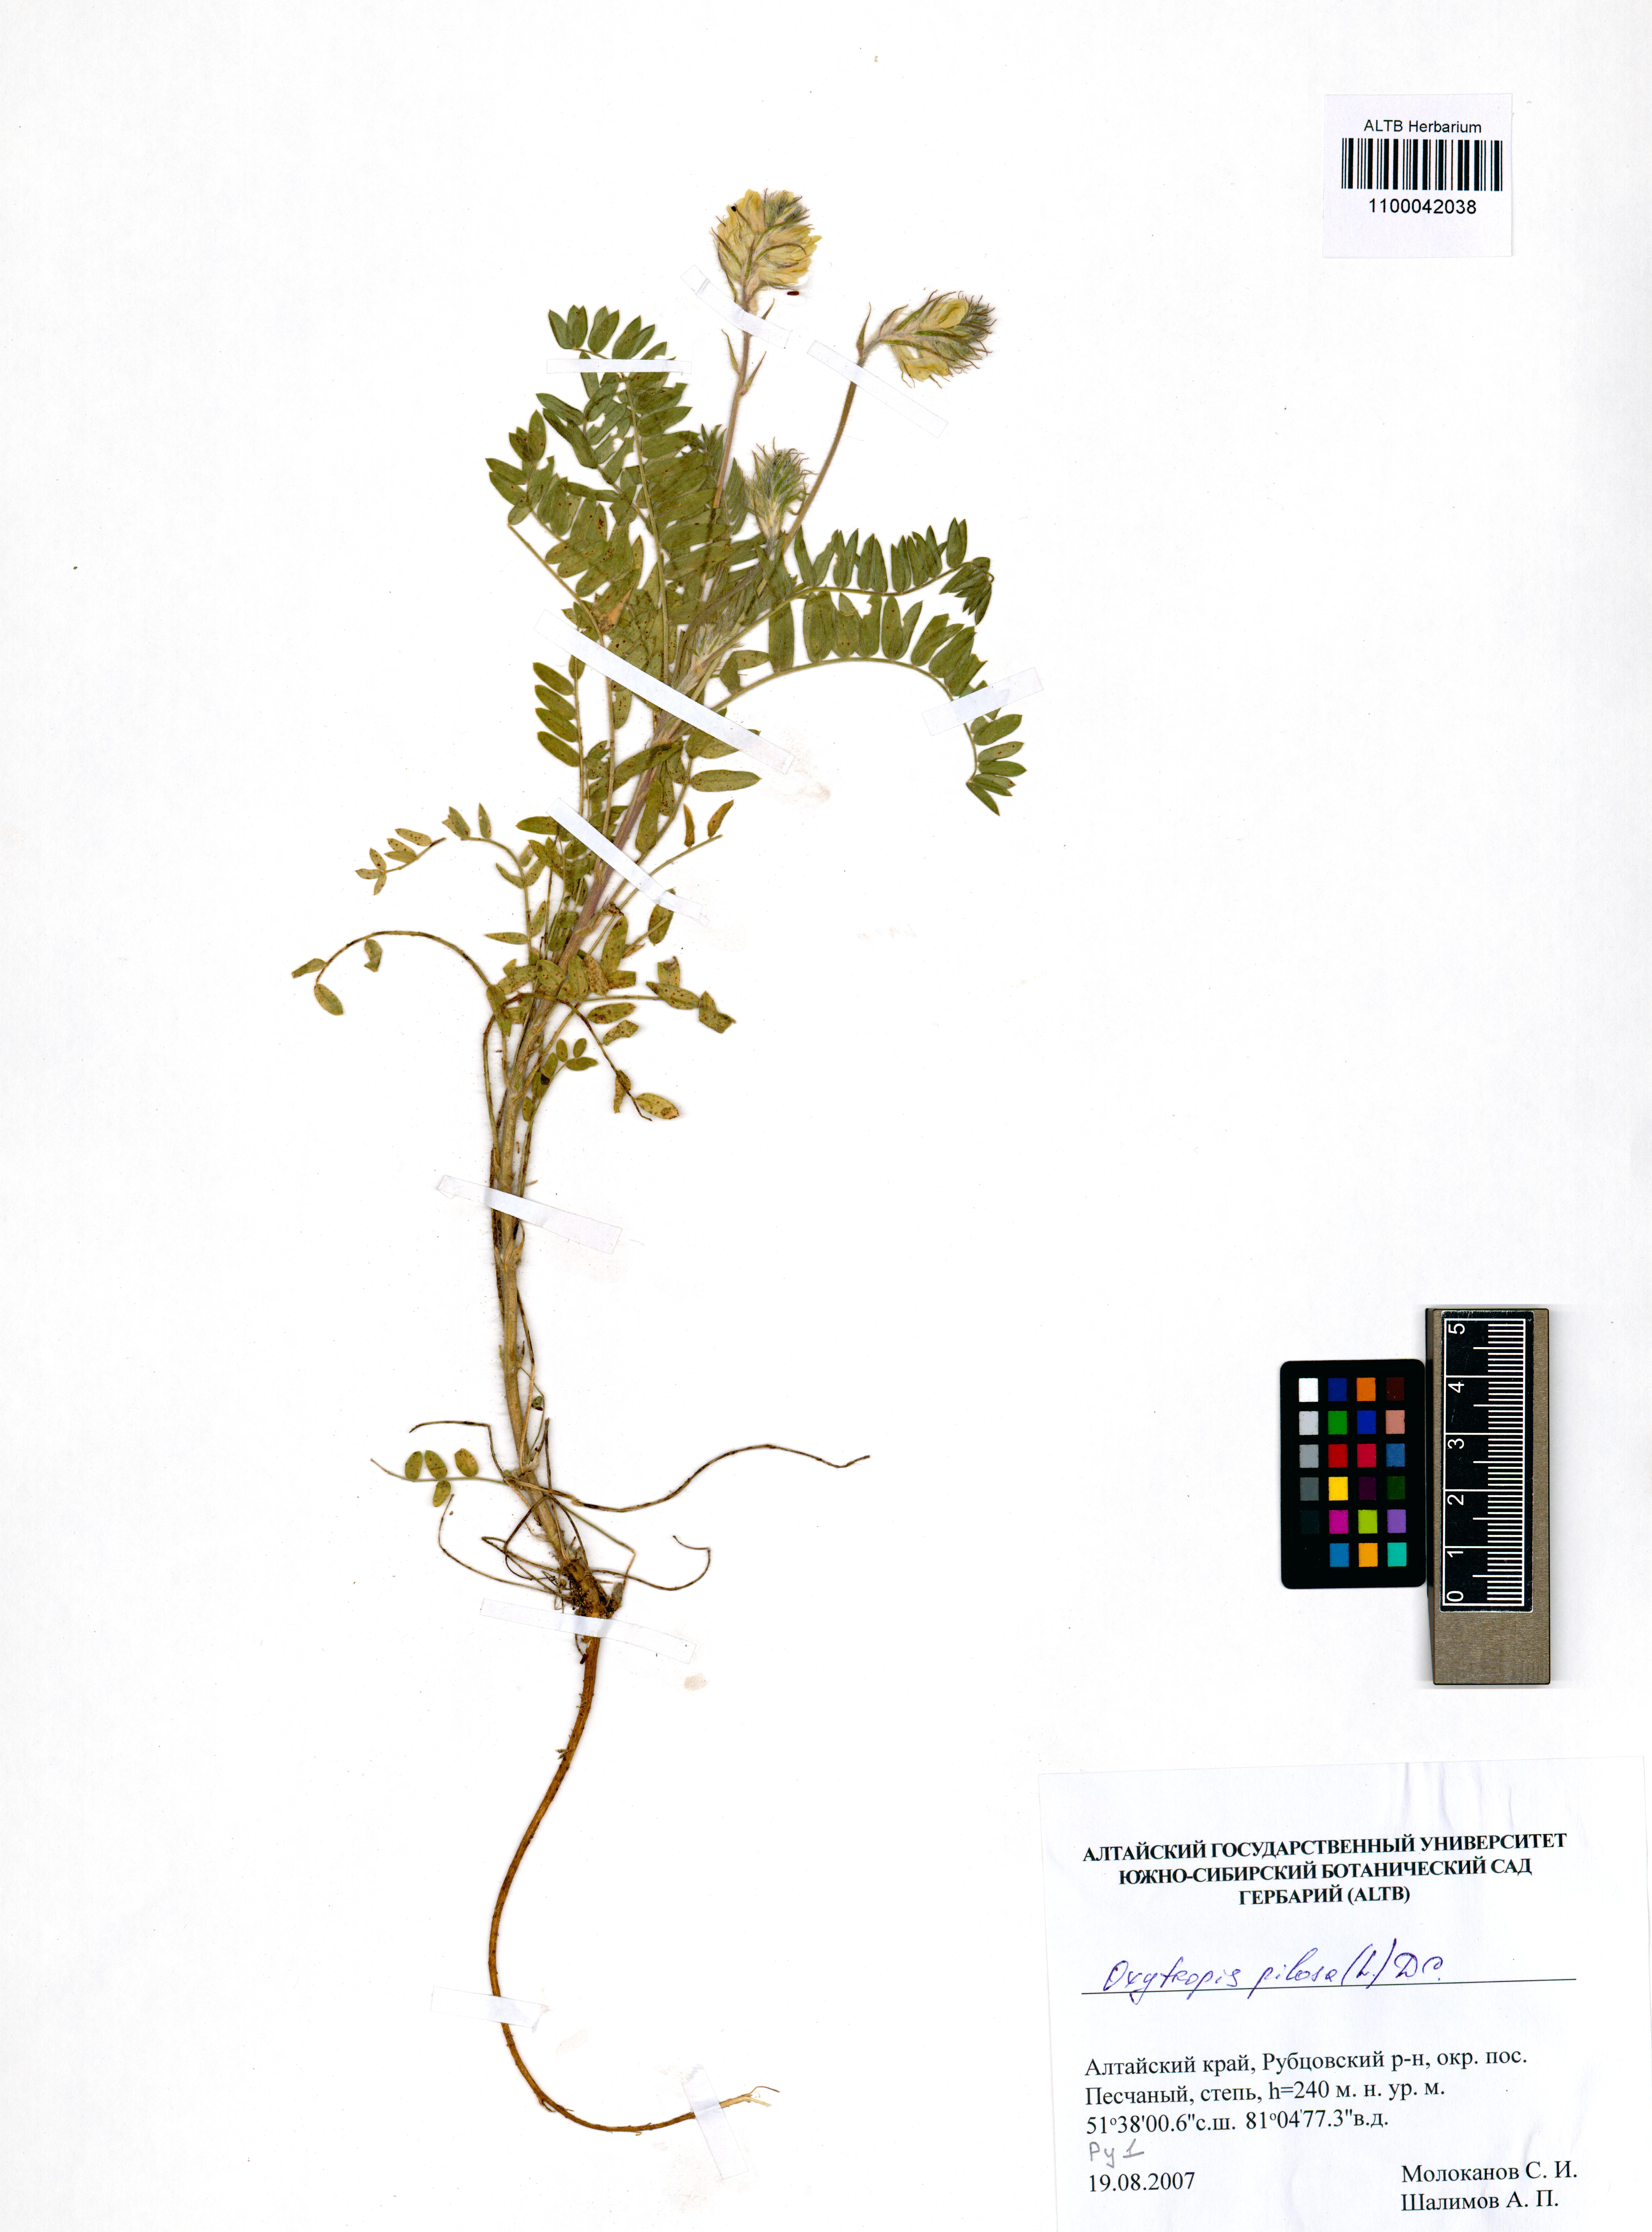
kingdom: Plantae
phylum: Tracheophyta
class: Magnoliopsida
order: Fabales
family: Fabaceae
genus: Oxytropis
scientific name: Oxytropis pilosa
